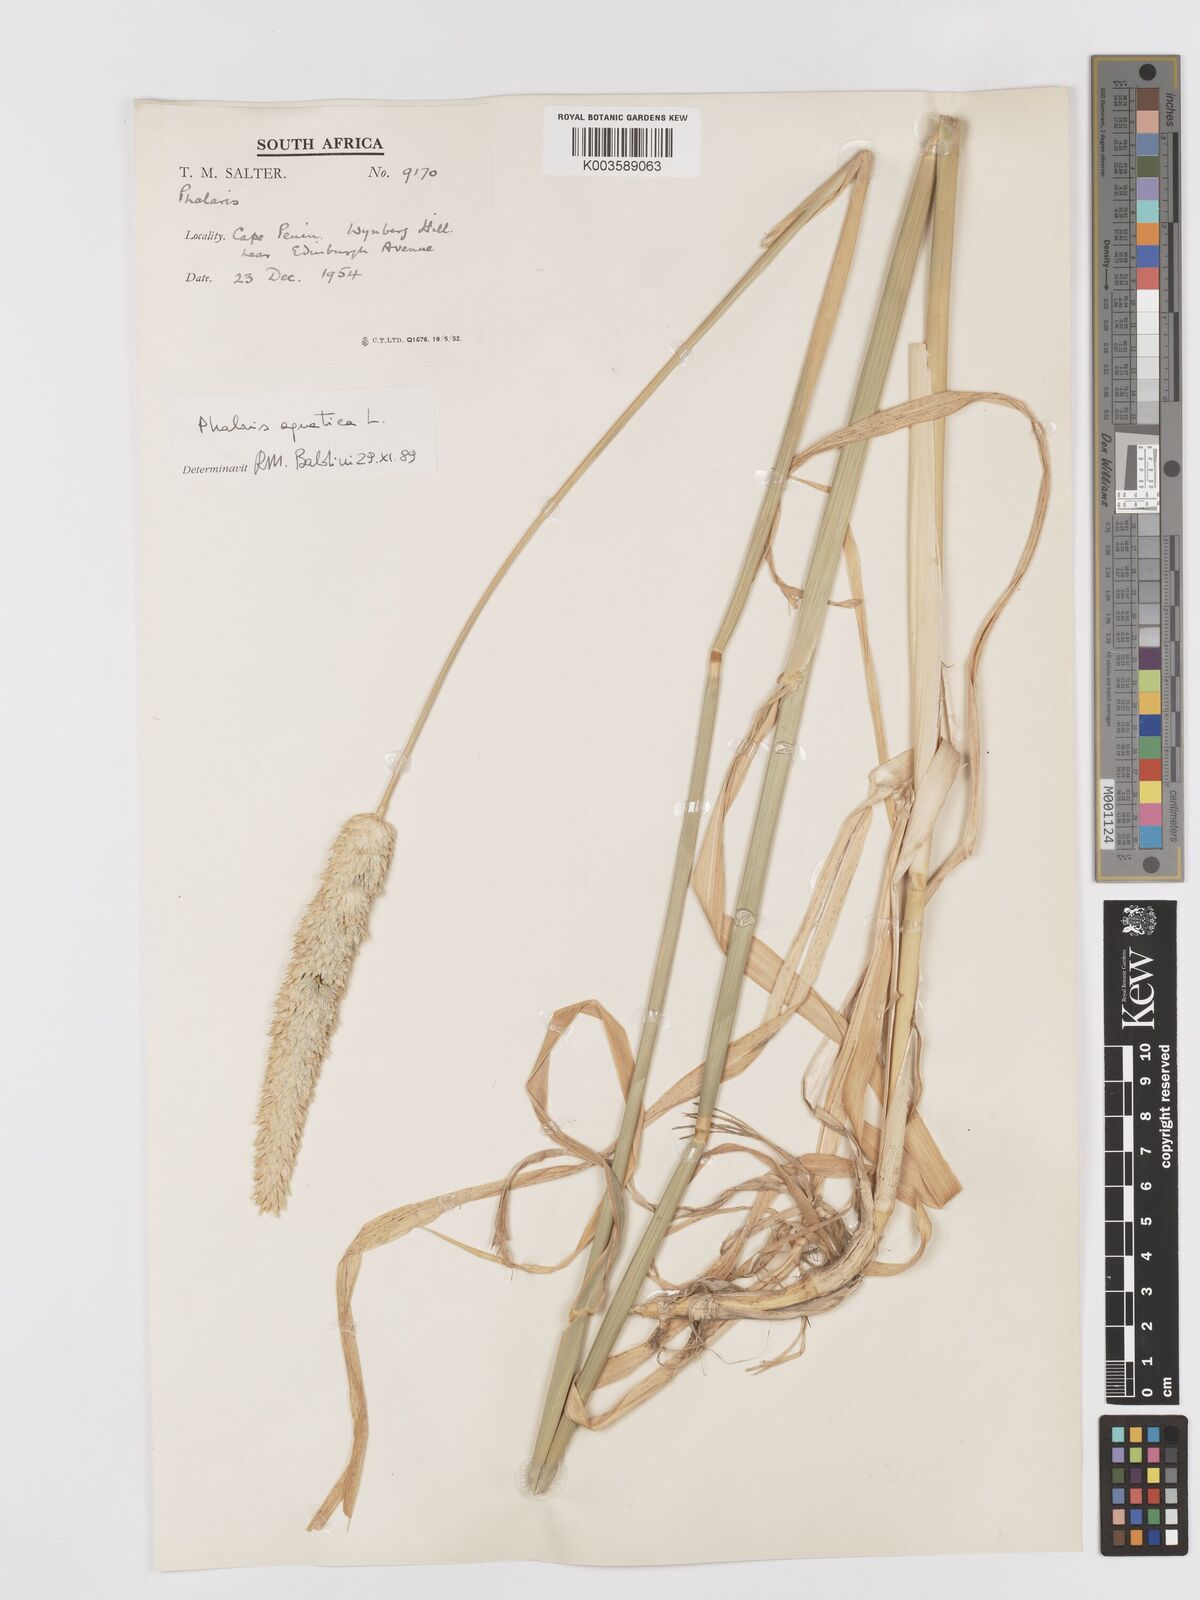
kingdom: Plantae
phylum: Tracheophyta
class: Liliopsida
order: Poales
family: Poaceae
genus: Phalaris
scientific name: Phalaris aquatica
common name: Bulbous canary-grass
